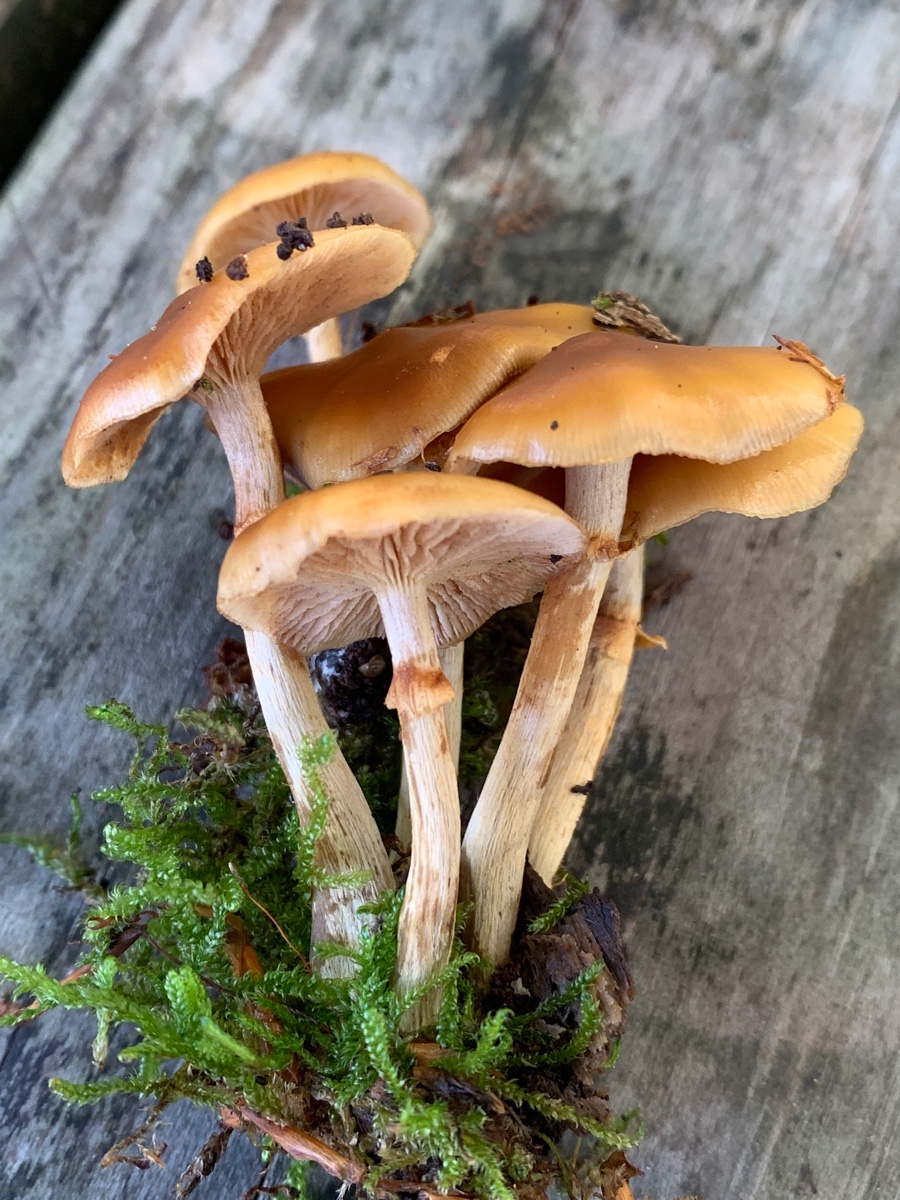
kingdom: Fungi
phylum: Basidiomycota
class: Agaricomycetes
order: Agaricales
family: Hymenogastraceae
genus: Galerina
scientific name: Galerina marginata
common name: randbæltet hjelmhat
